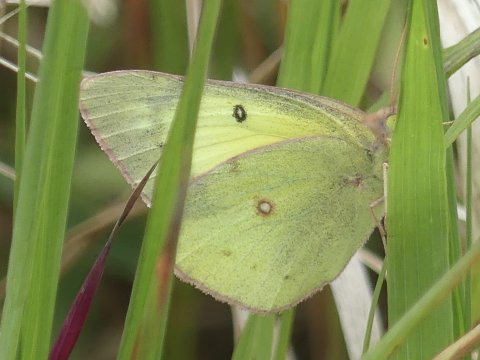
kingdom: Animalia
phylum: Arthropoda
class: Insecta
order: Lepidoptera
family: Pieridae
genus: Colias
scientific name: Colias philodice
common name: Clouded Sulphur
